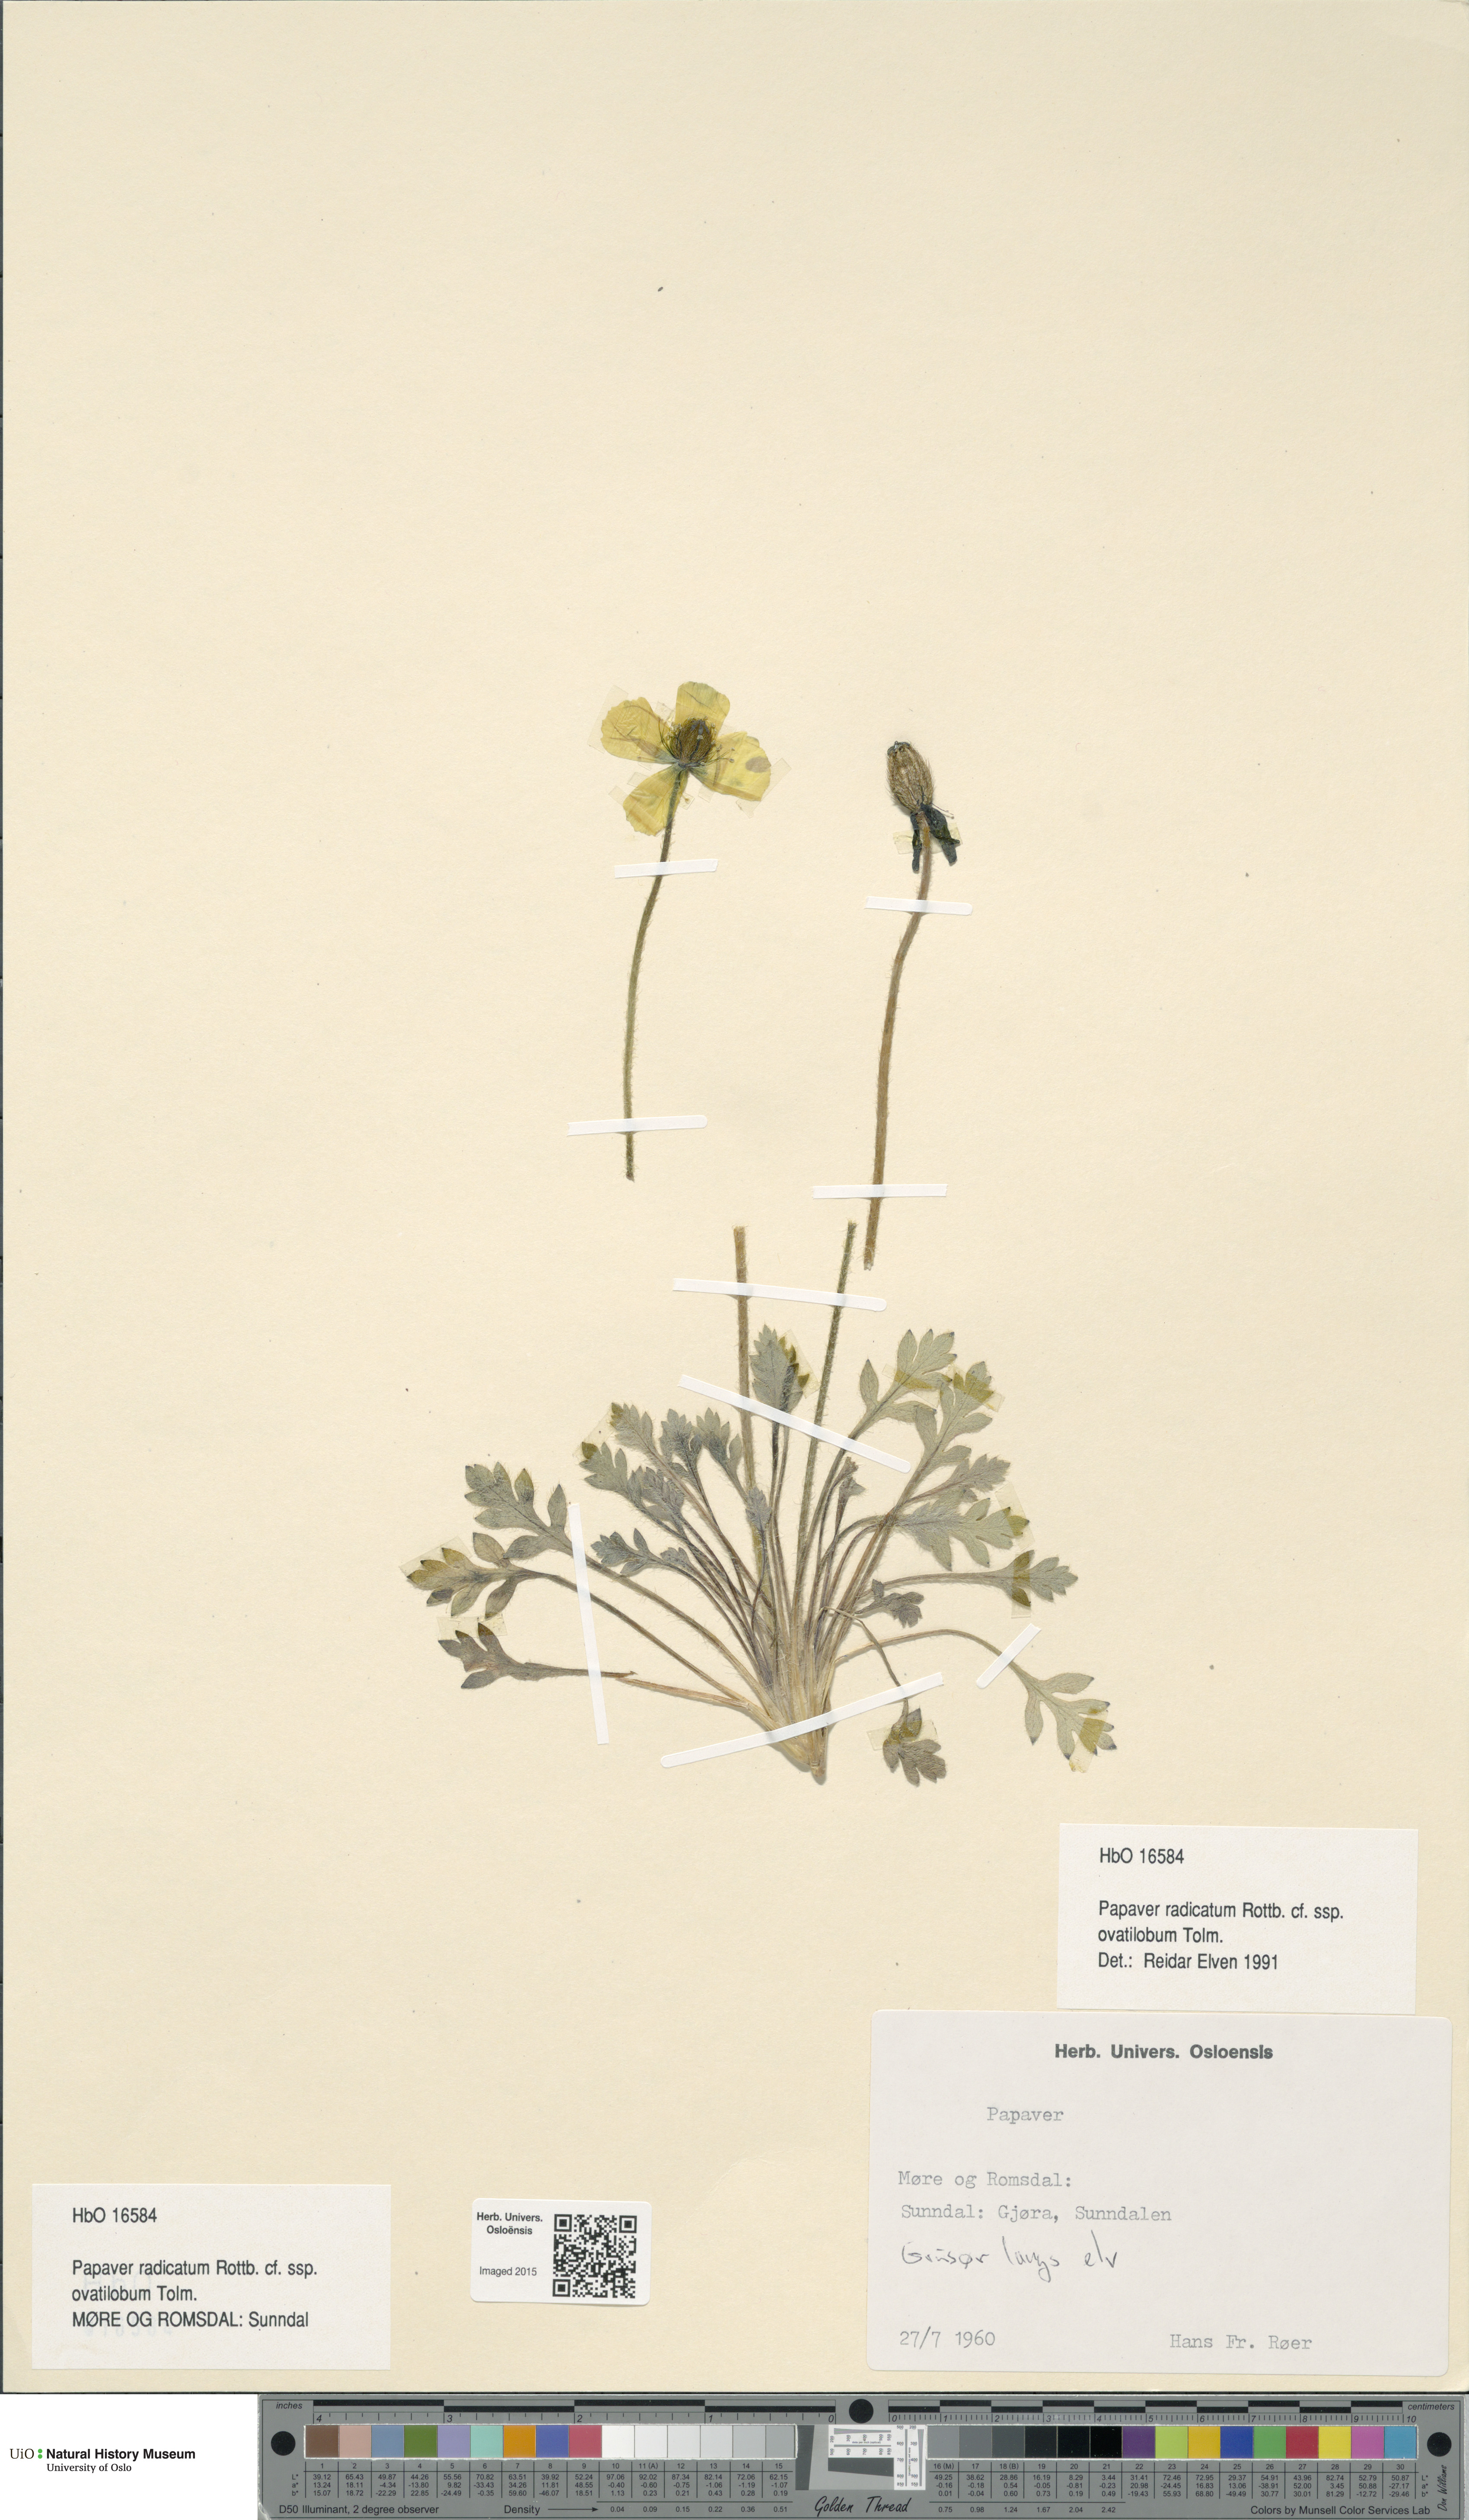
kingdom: Plantae
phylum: Tracheophyta
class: Magnoliopsida
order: Ranunculales
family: Papaveraceae
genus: Papaver
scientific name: Papaver radicatum
